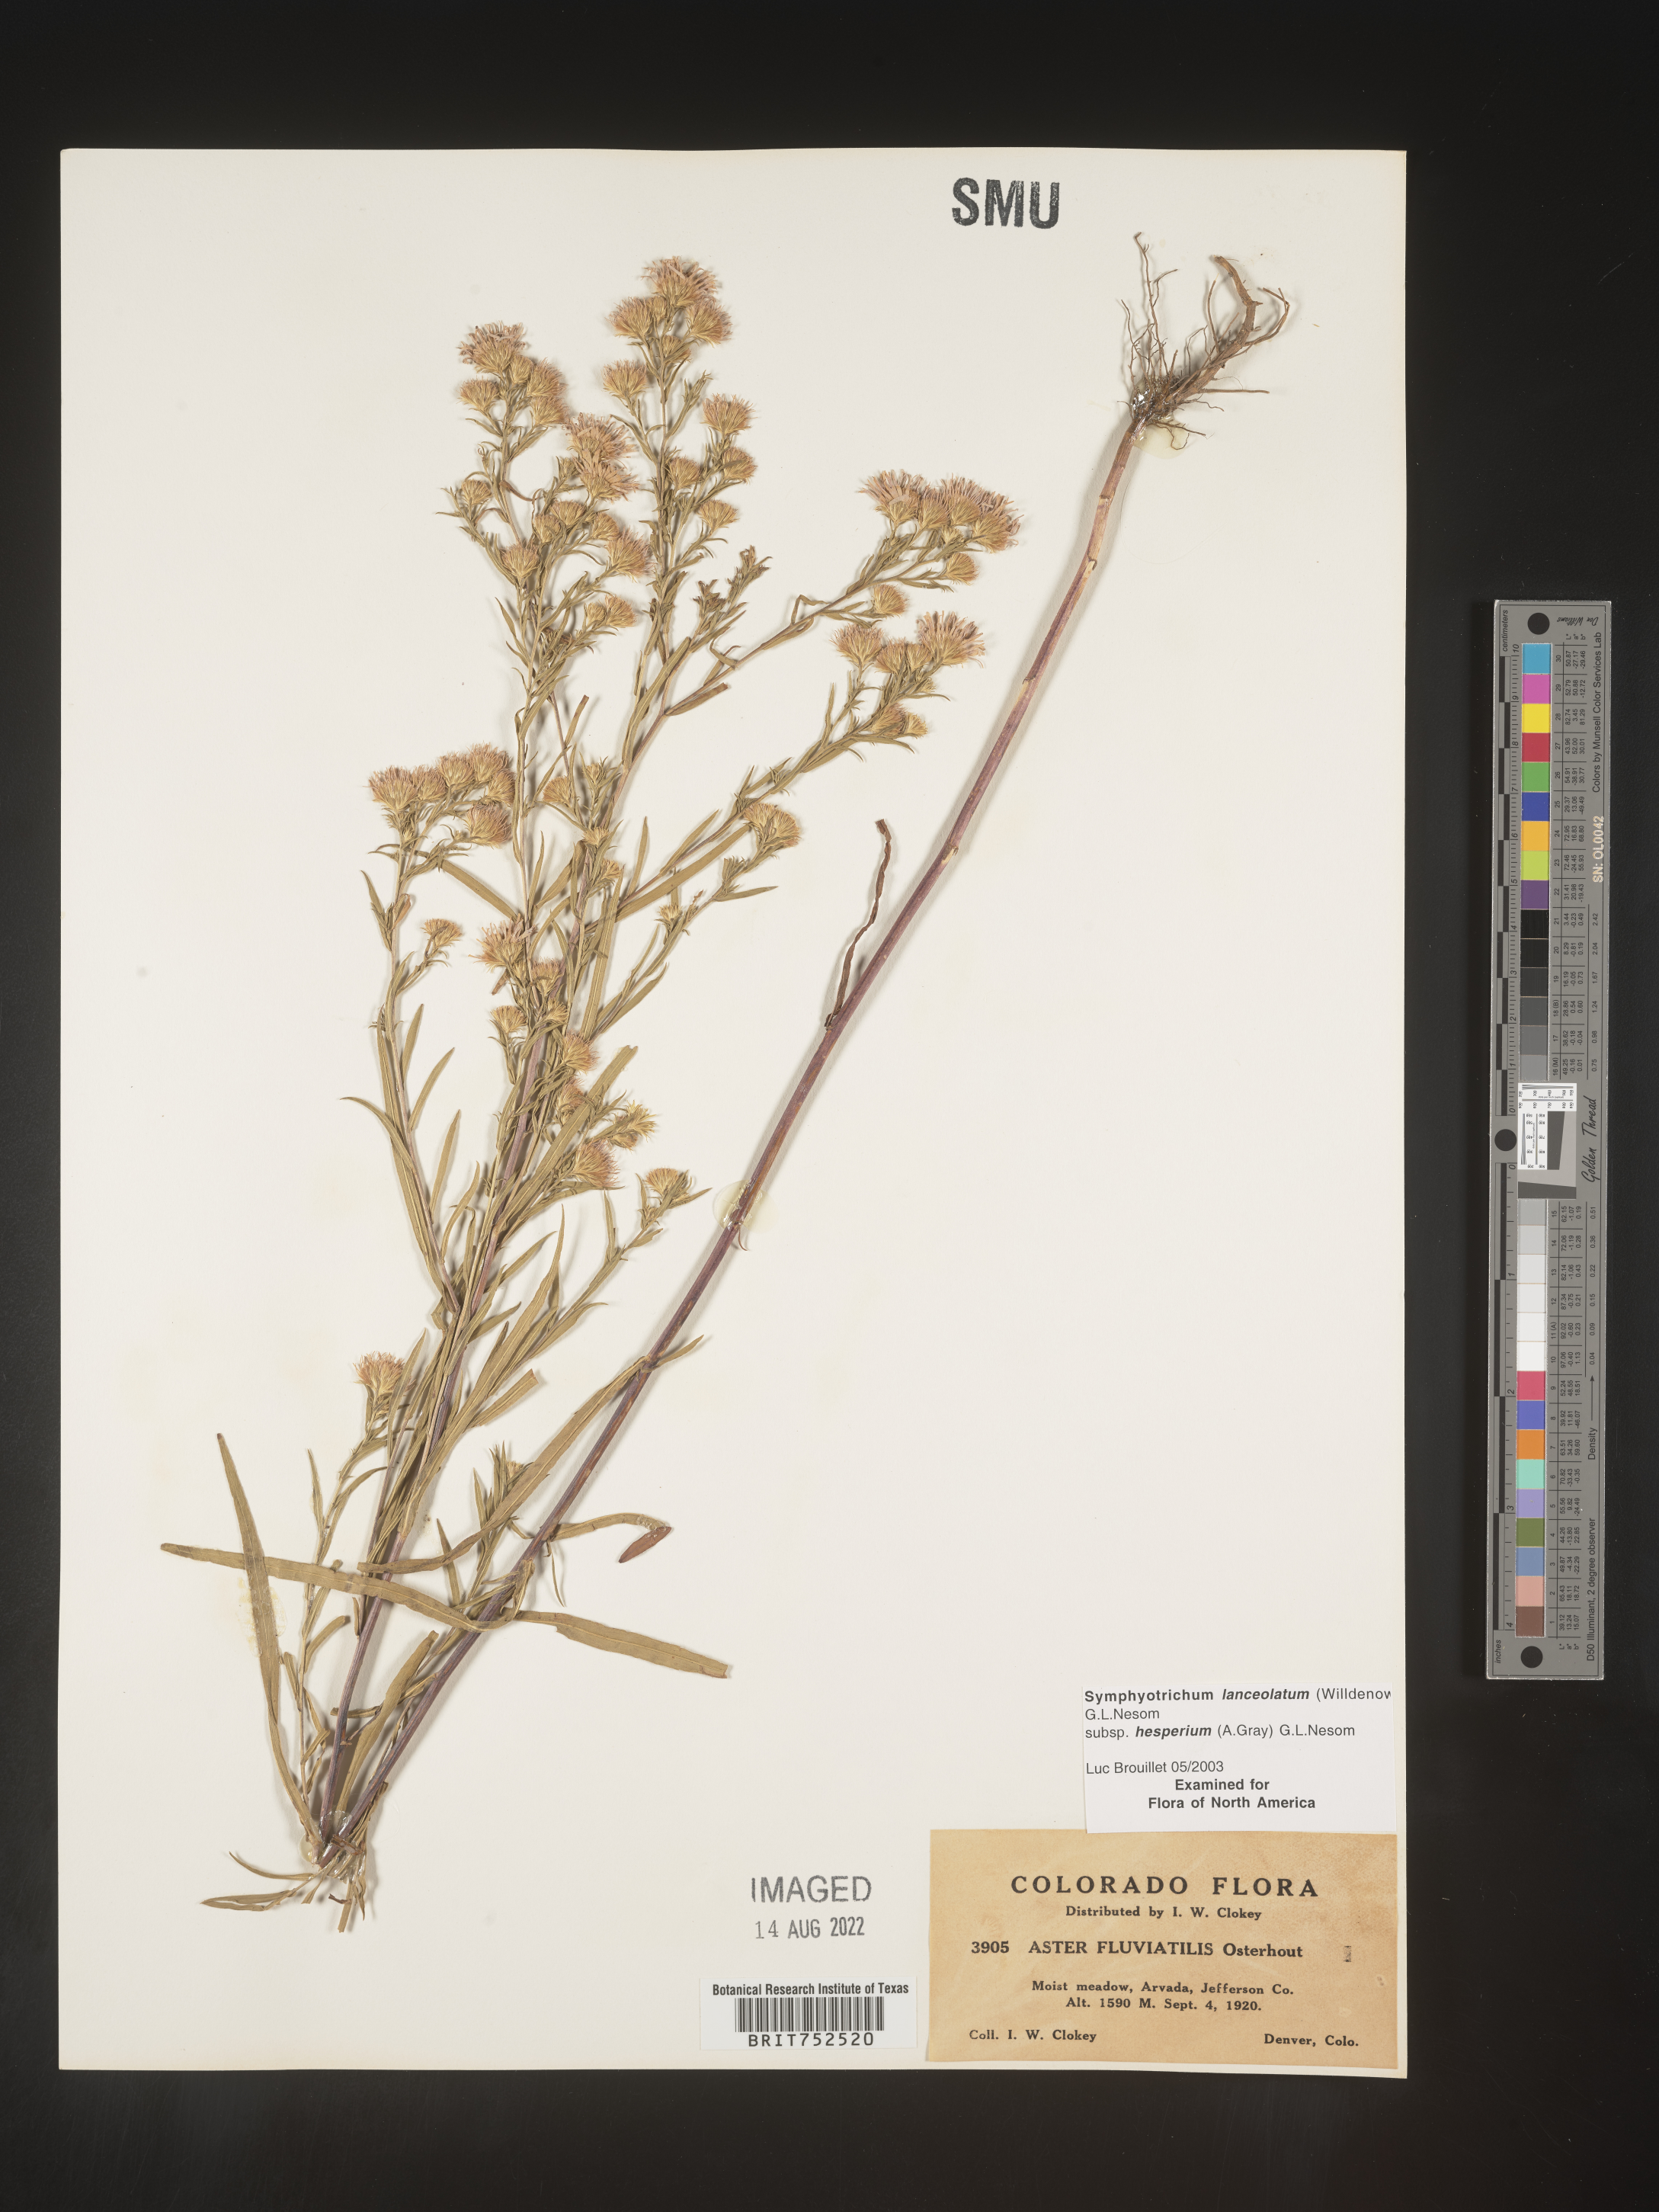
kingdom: Plantae
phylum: Tracheophyta
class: Magnoliopsida
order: Asterales
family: Asteraceae
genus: Symphyotrichum
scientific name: Symphyotrichum lanceolatum
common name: Panicled aster
